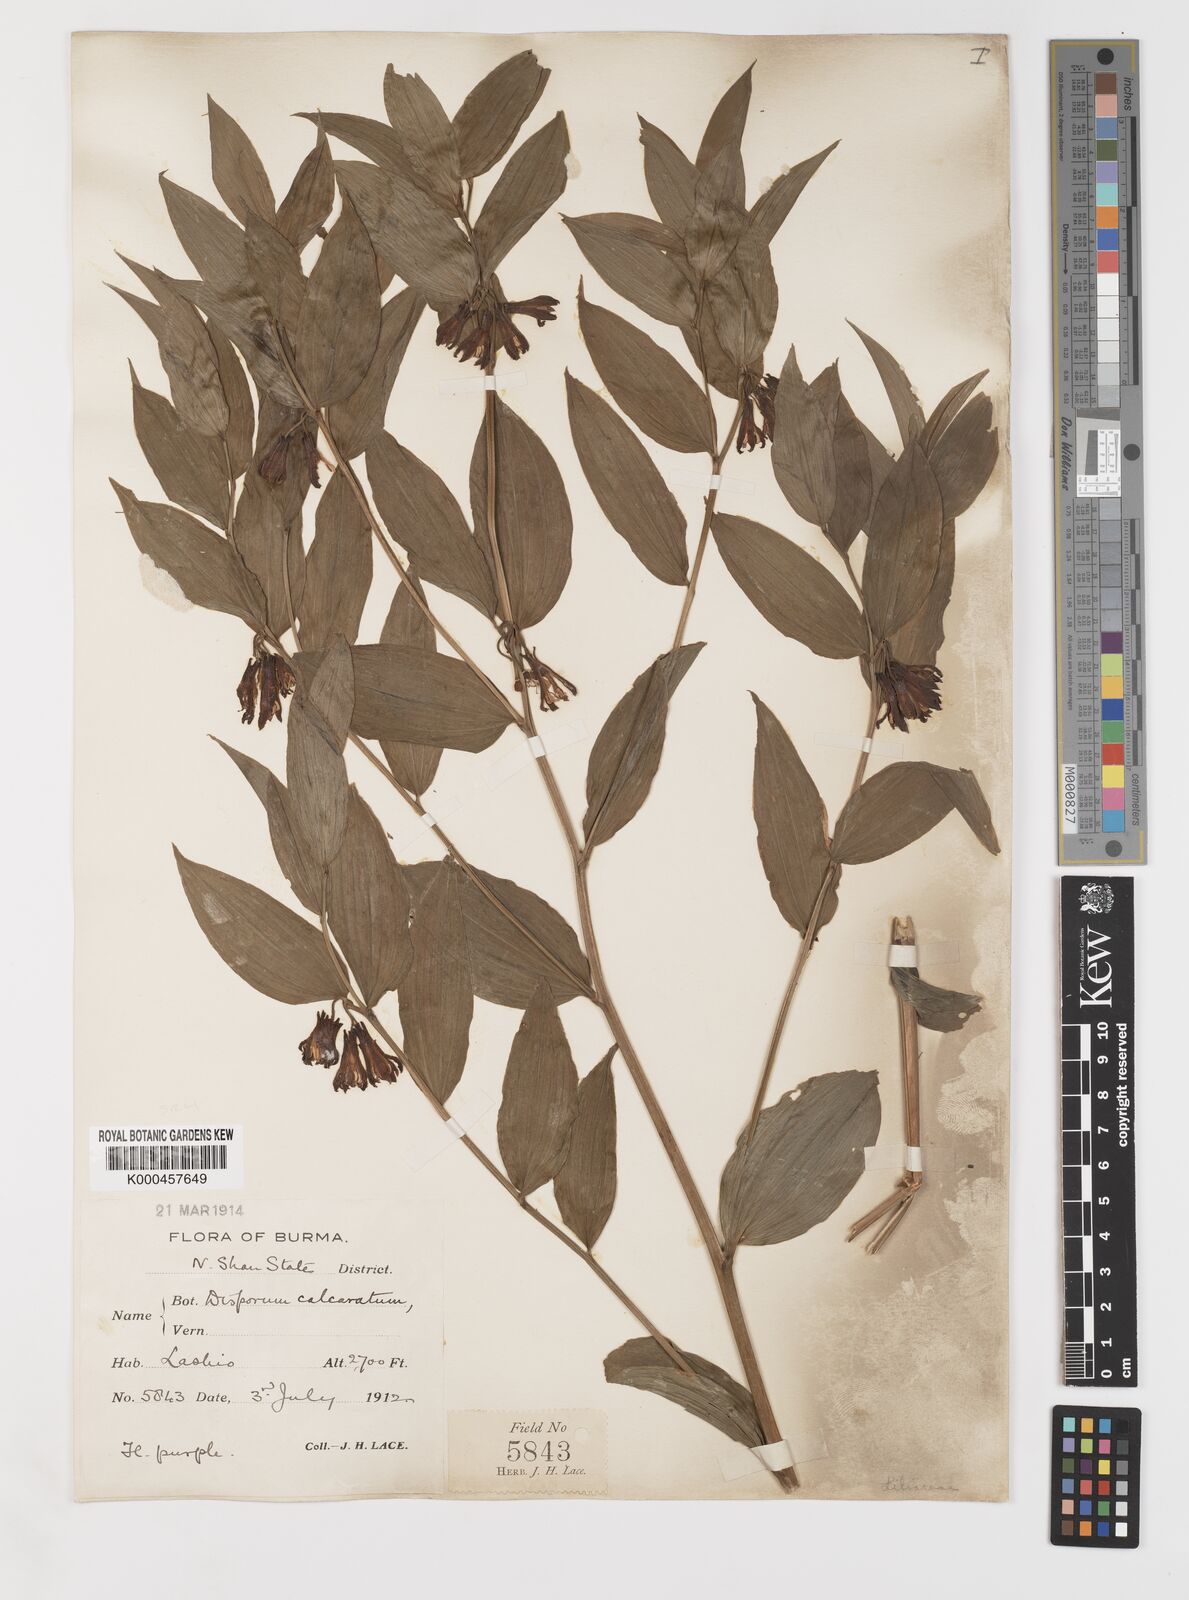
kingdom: Plantae
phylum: Tracheophyta
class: Liliopsida
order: Liliales
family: Colchicaceae
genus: Disporum
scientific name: Disporum calcaratum
